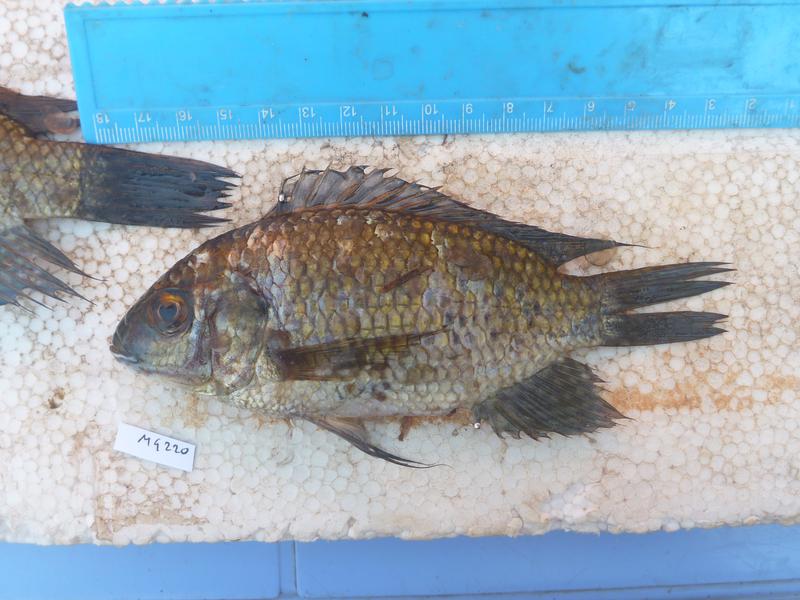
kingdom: Animalia
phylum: Chordata
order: Perciformes
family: Cichlidae
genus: Oreochromis
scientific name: Oreochromis leucostictus
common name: Blue spotted tilapia
